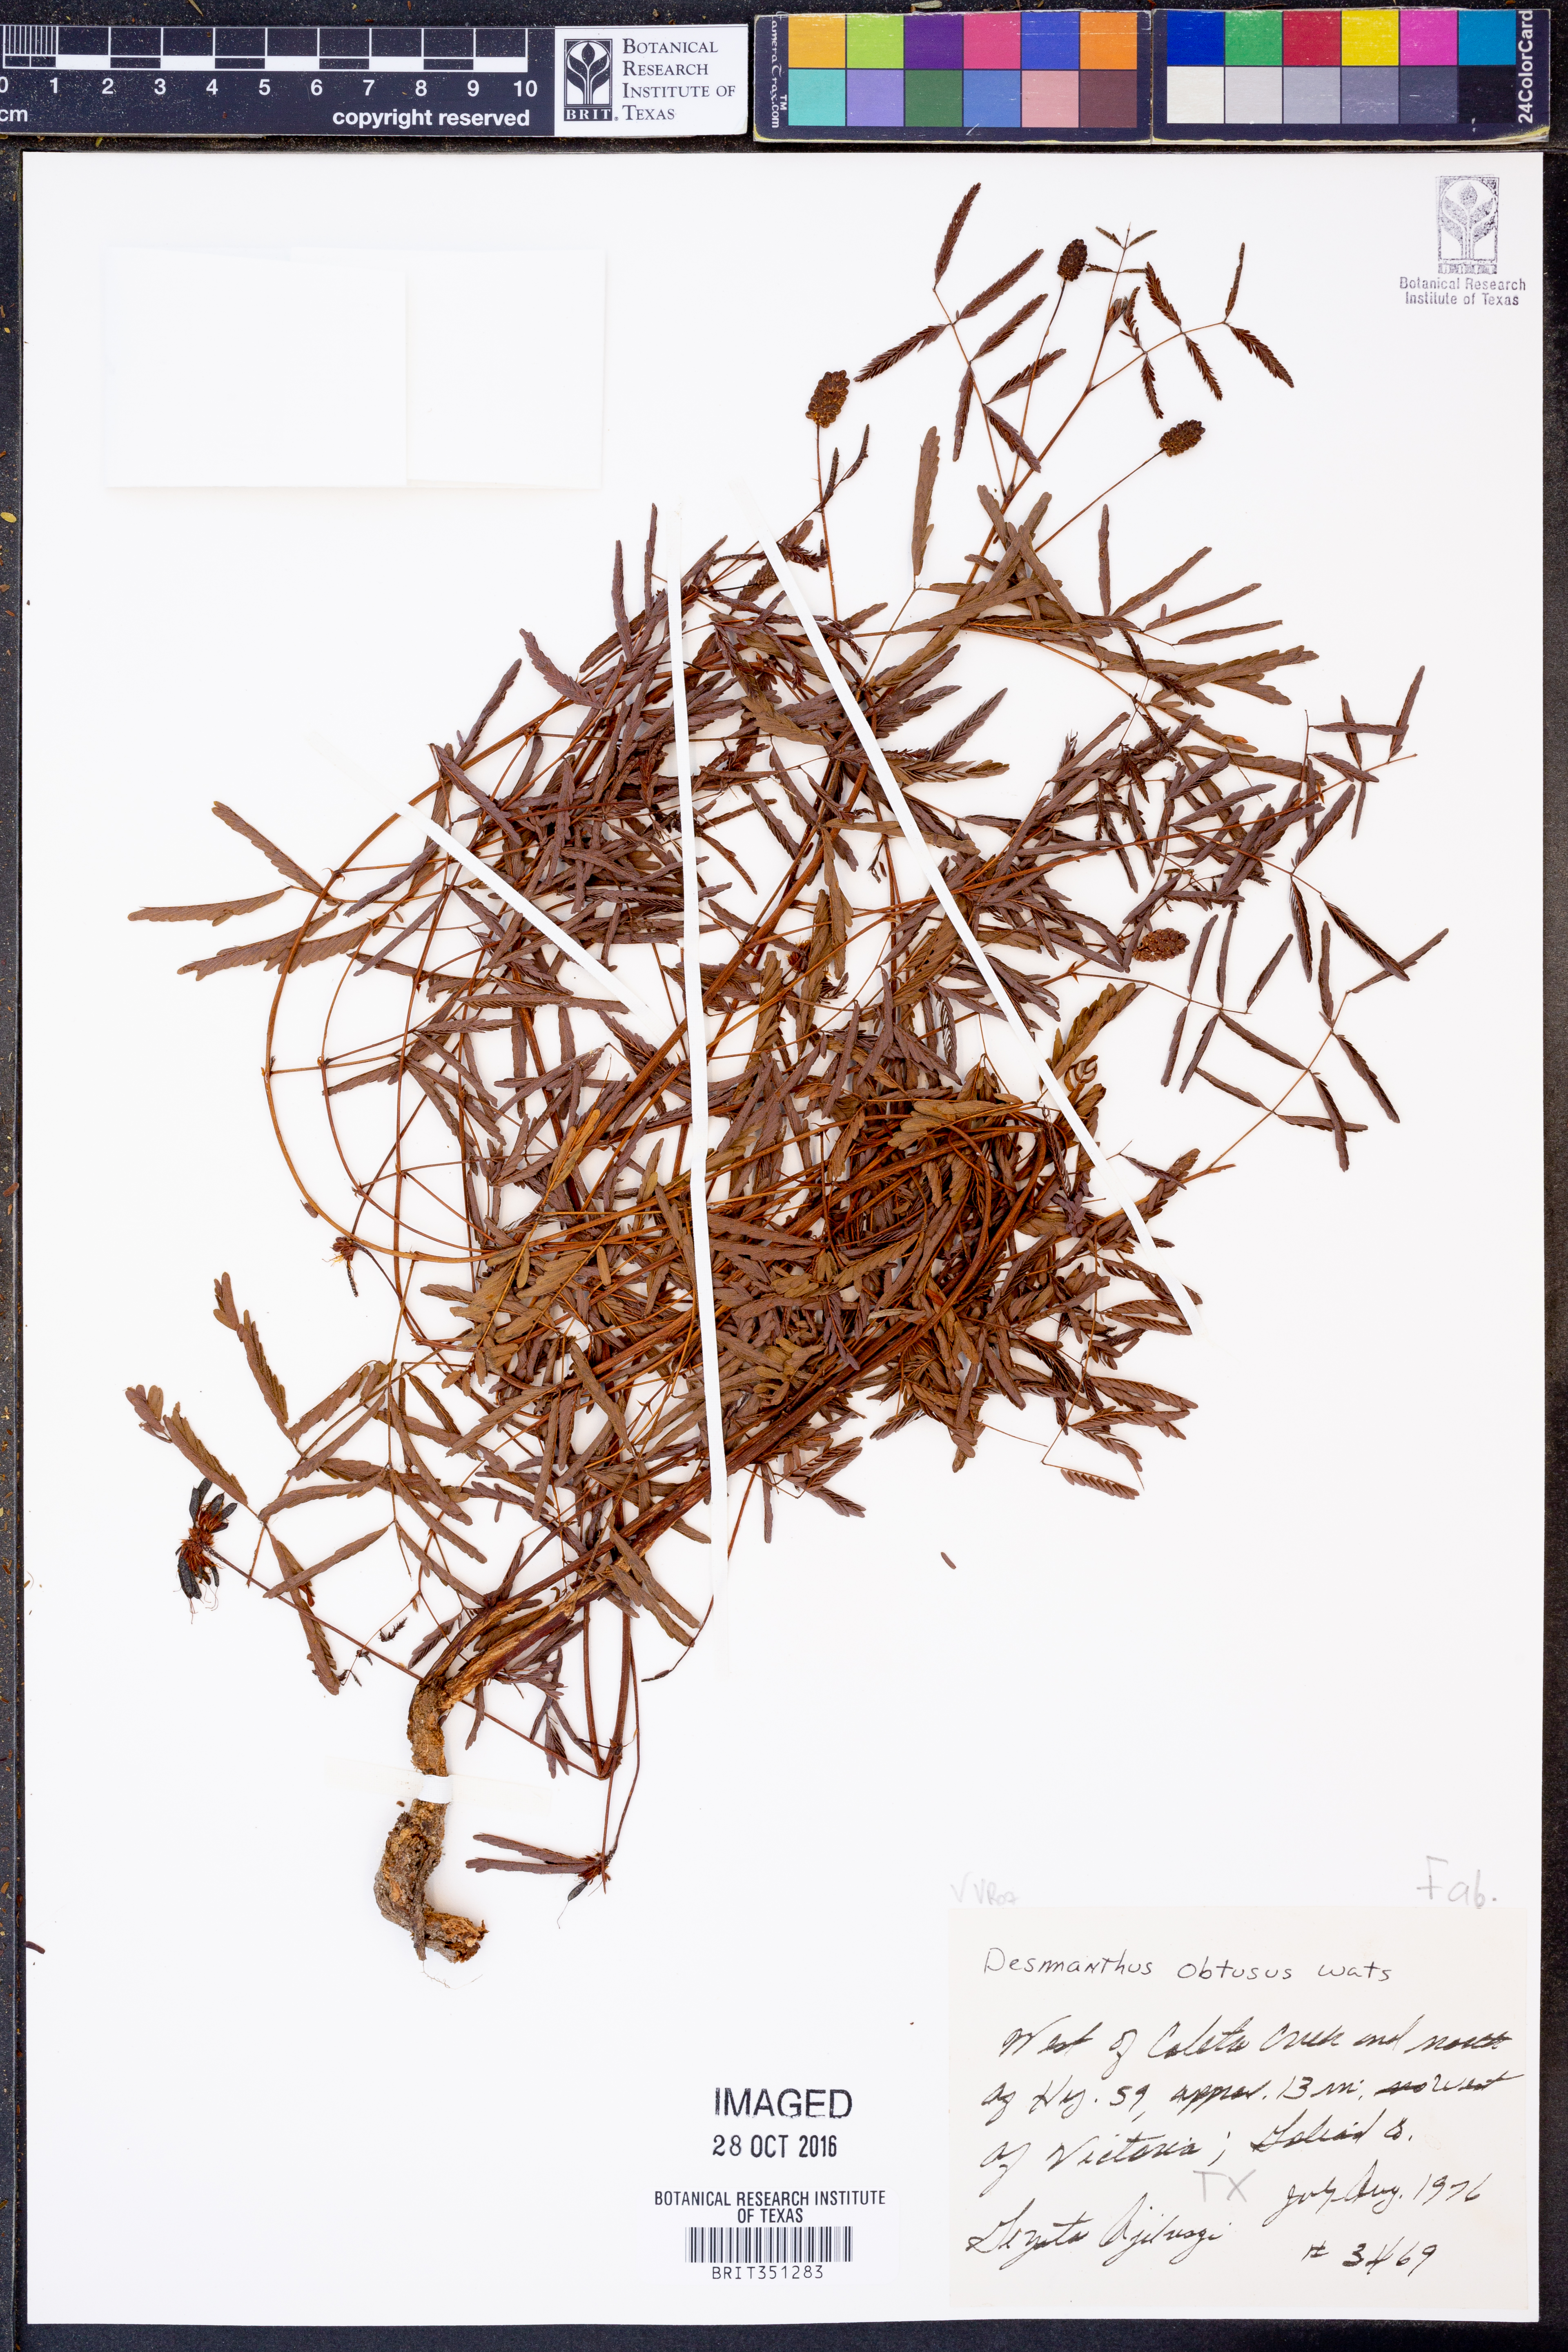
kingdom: Plantae
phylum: Tracheophyta
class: Magnoliopsida
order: Fabales
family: Fabaceae
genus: Desmanthus
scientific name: Desmanthus obtusus
